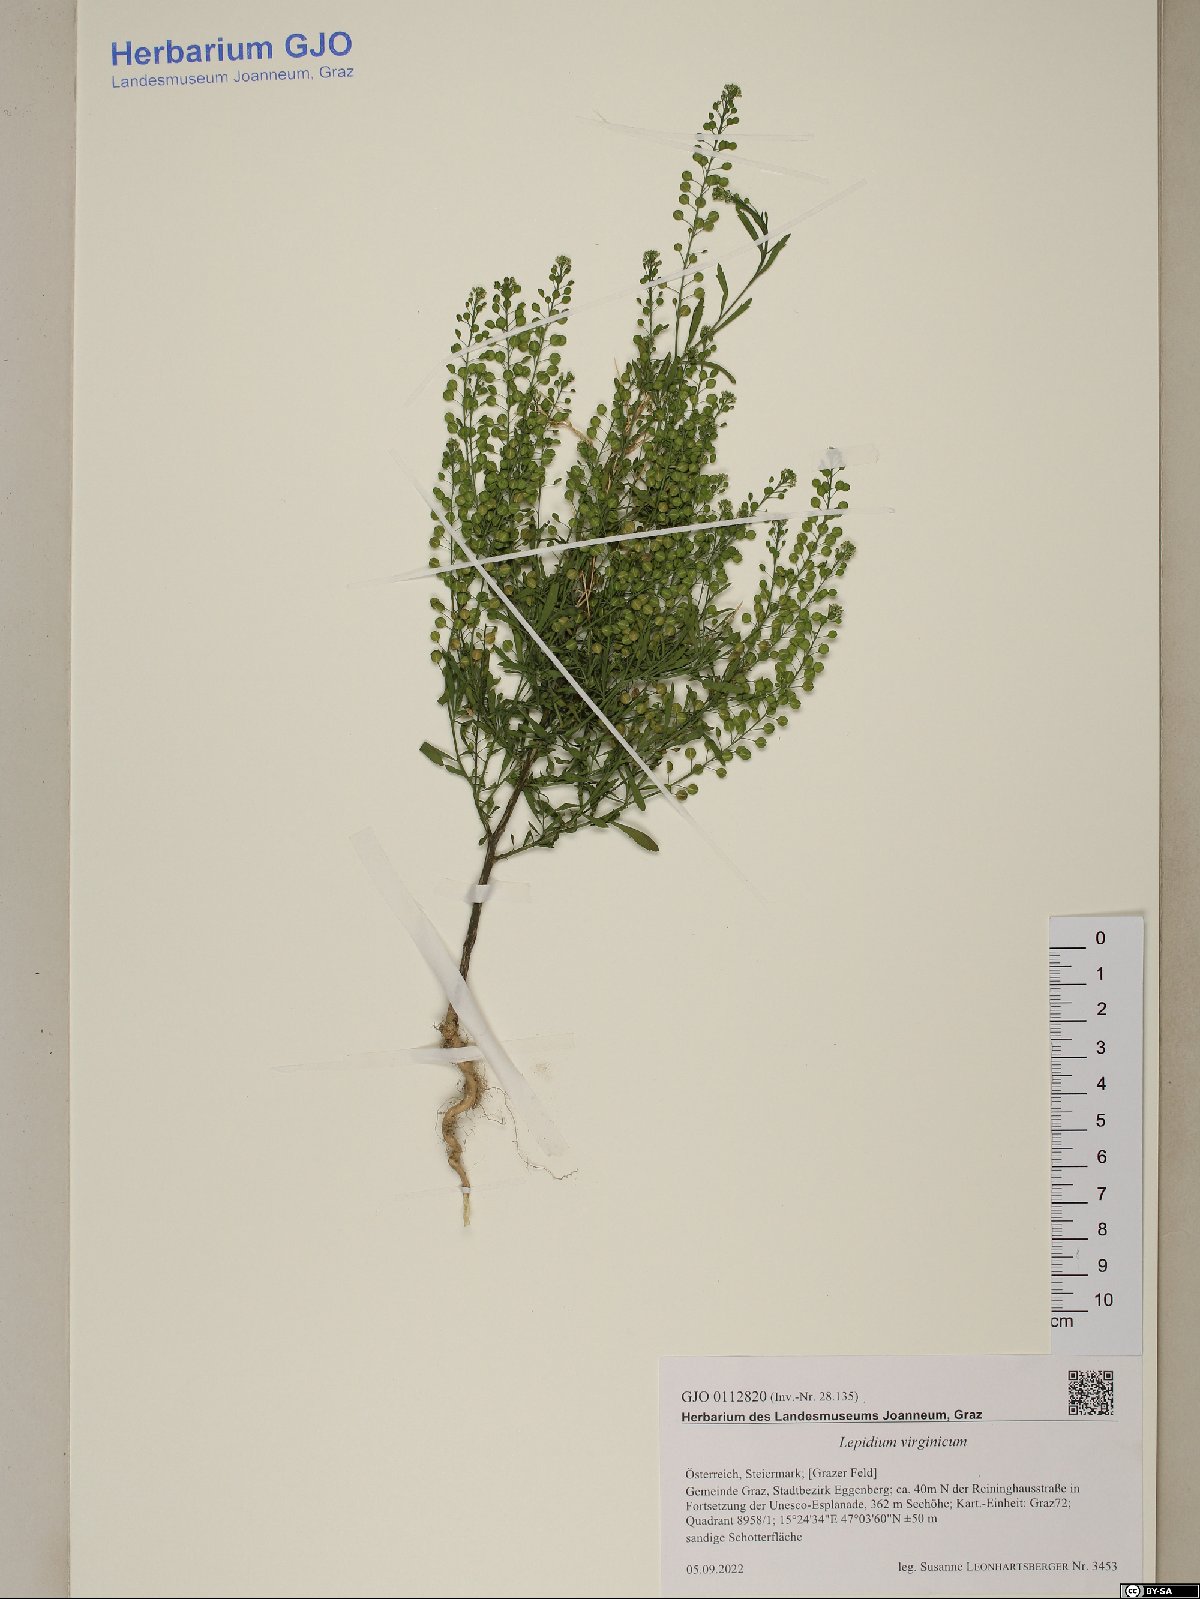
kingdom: Plantae
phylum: Tracheophyta
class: Magnoliopsida
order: Brassicales
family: Brassicaceae
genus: Lepidium
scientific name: Lepidium virginicum
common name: Least pepperwort
